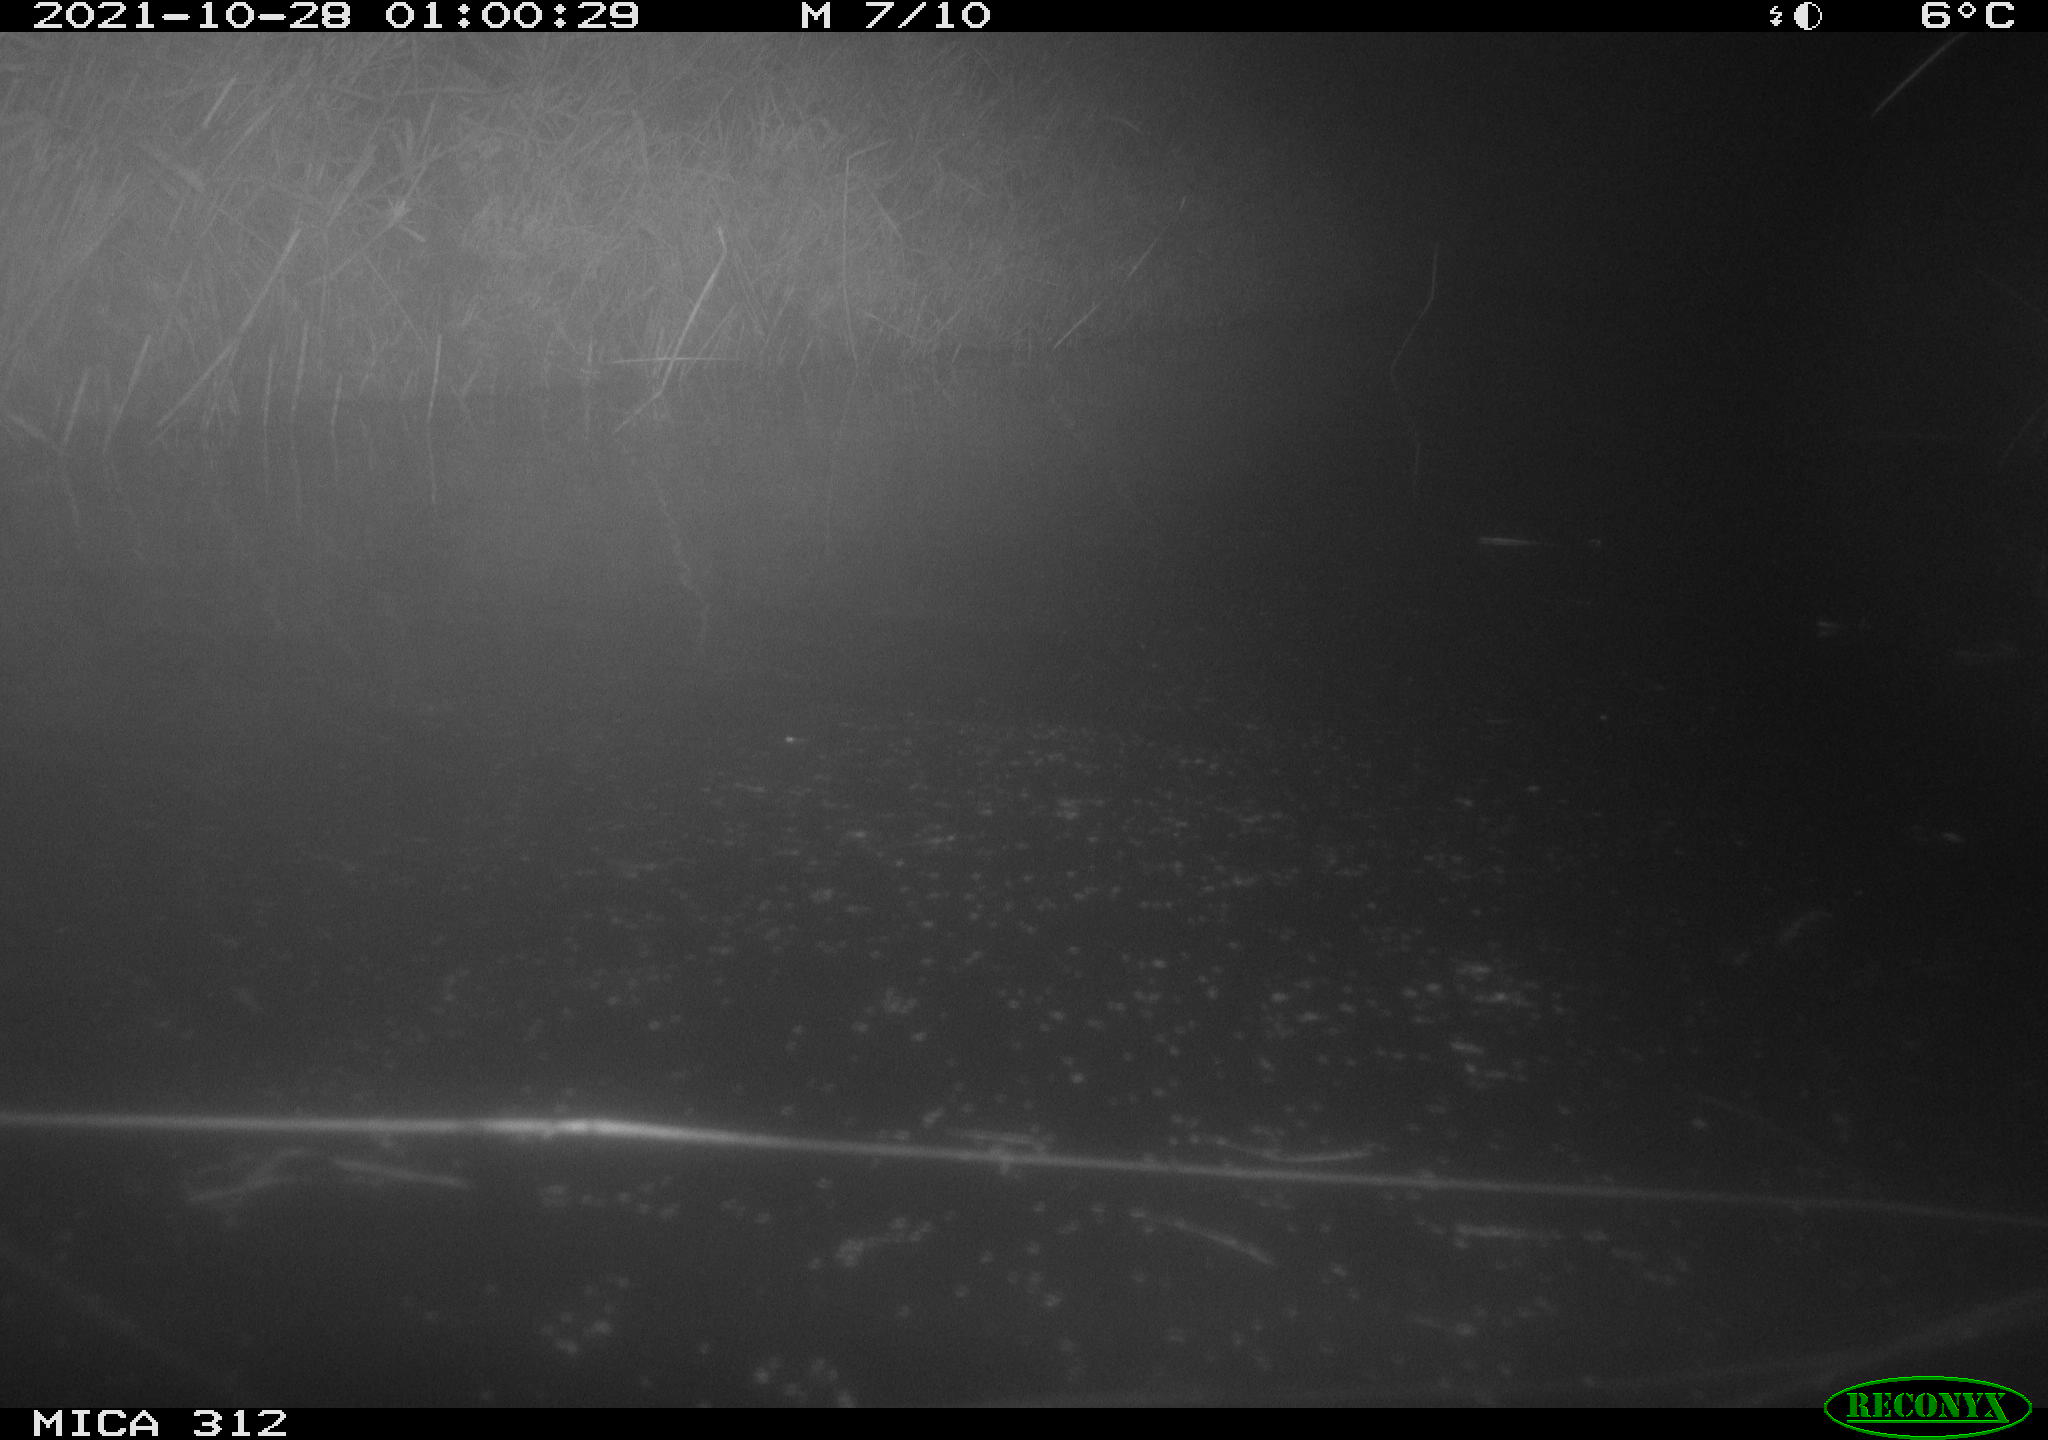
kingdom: Animalia
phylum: Chordata
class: Mammalia
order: Rodentia
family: Muridae
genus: Rattus
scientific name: Rattus norvegicus
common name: Brown rat
